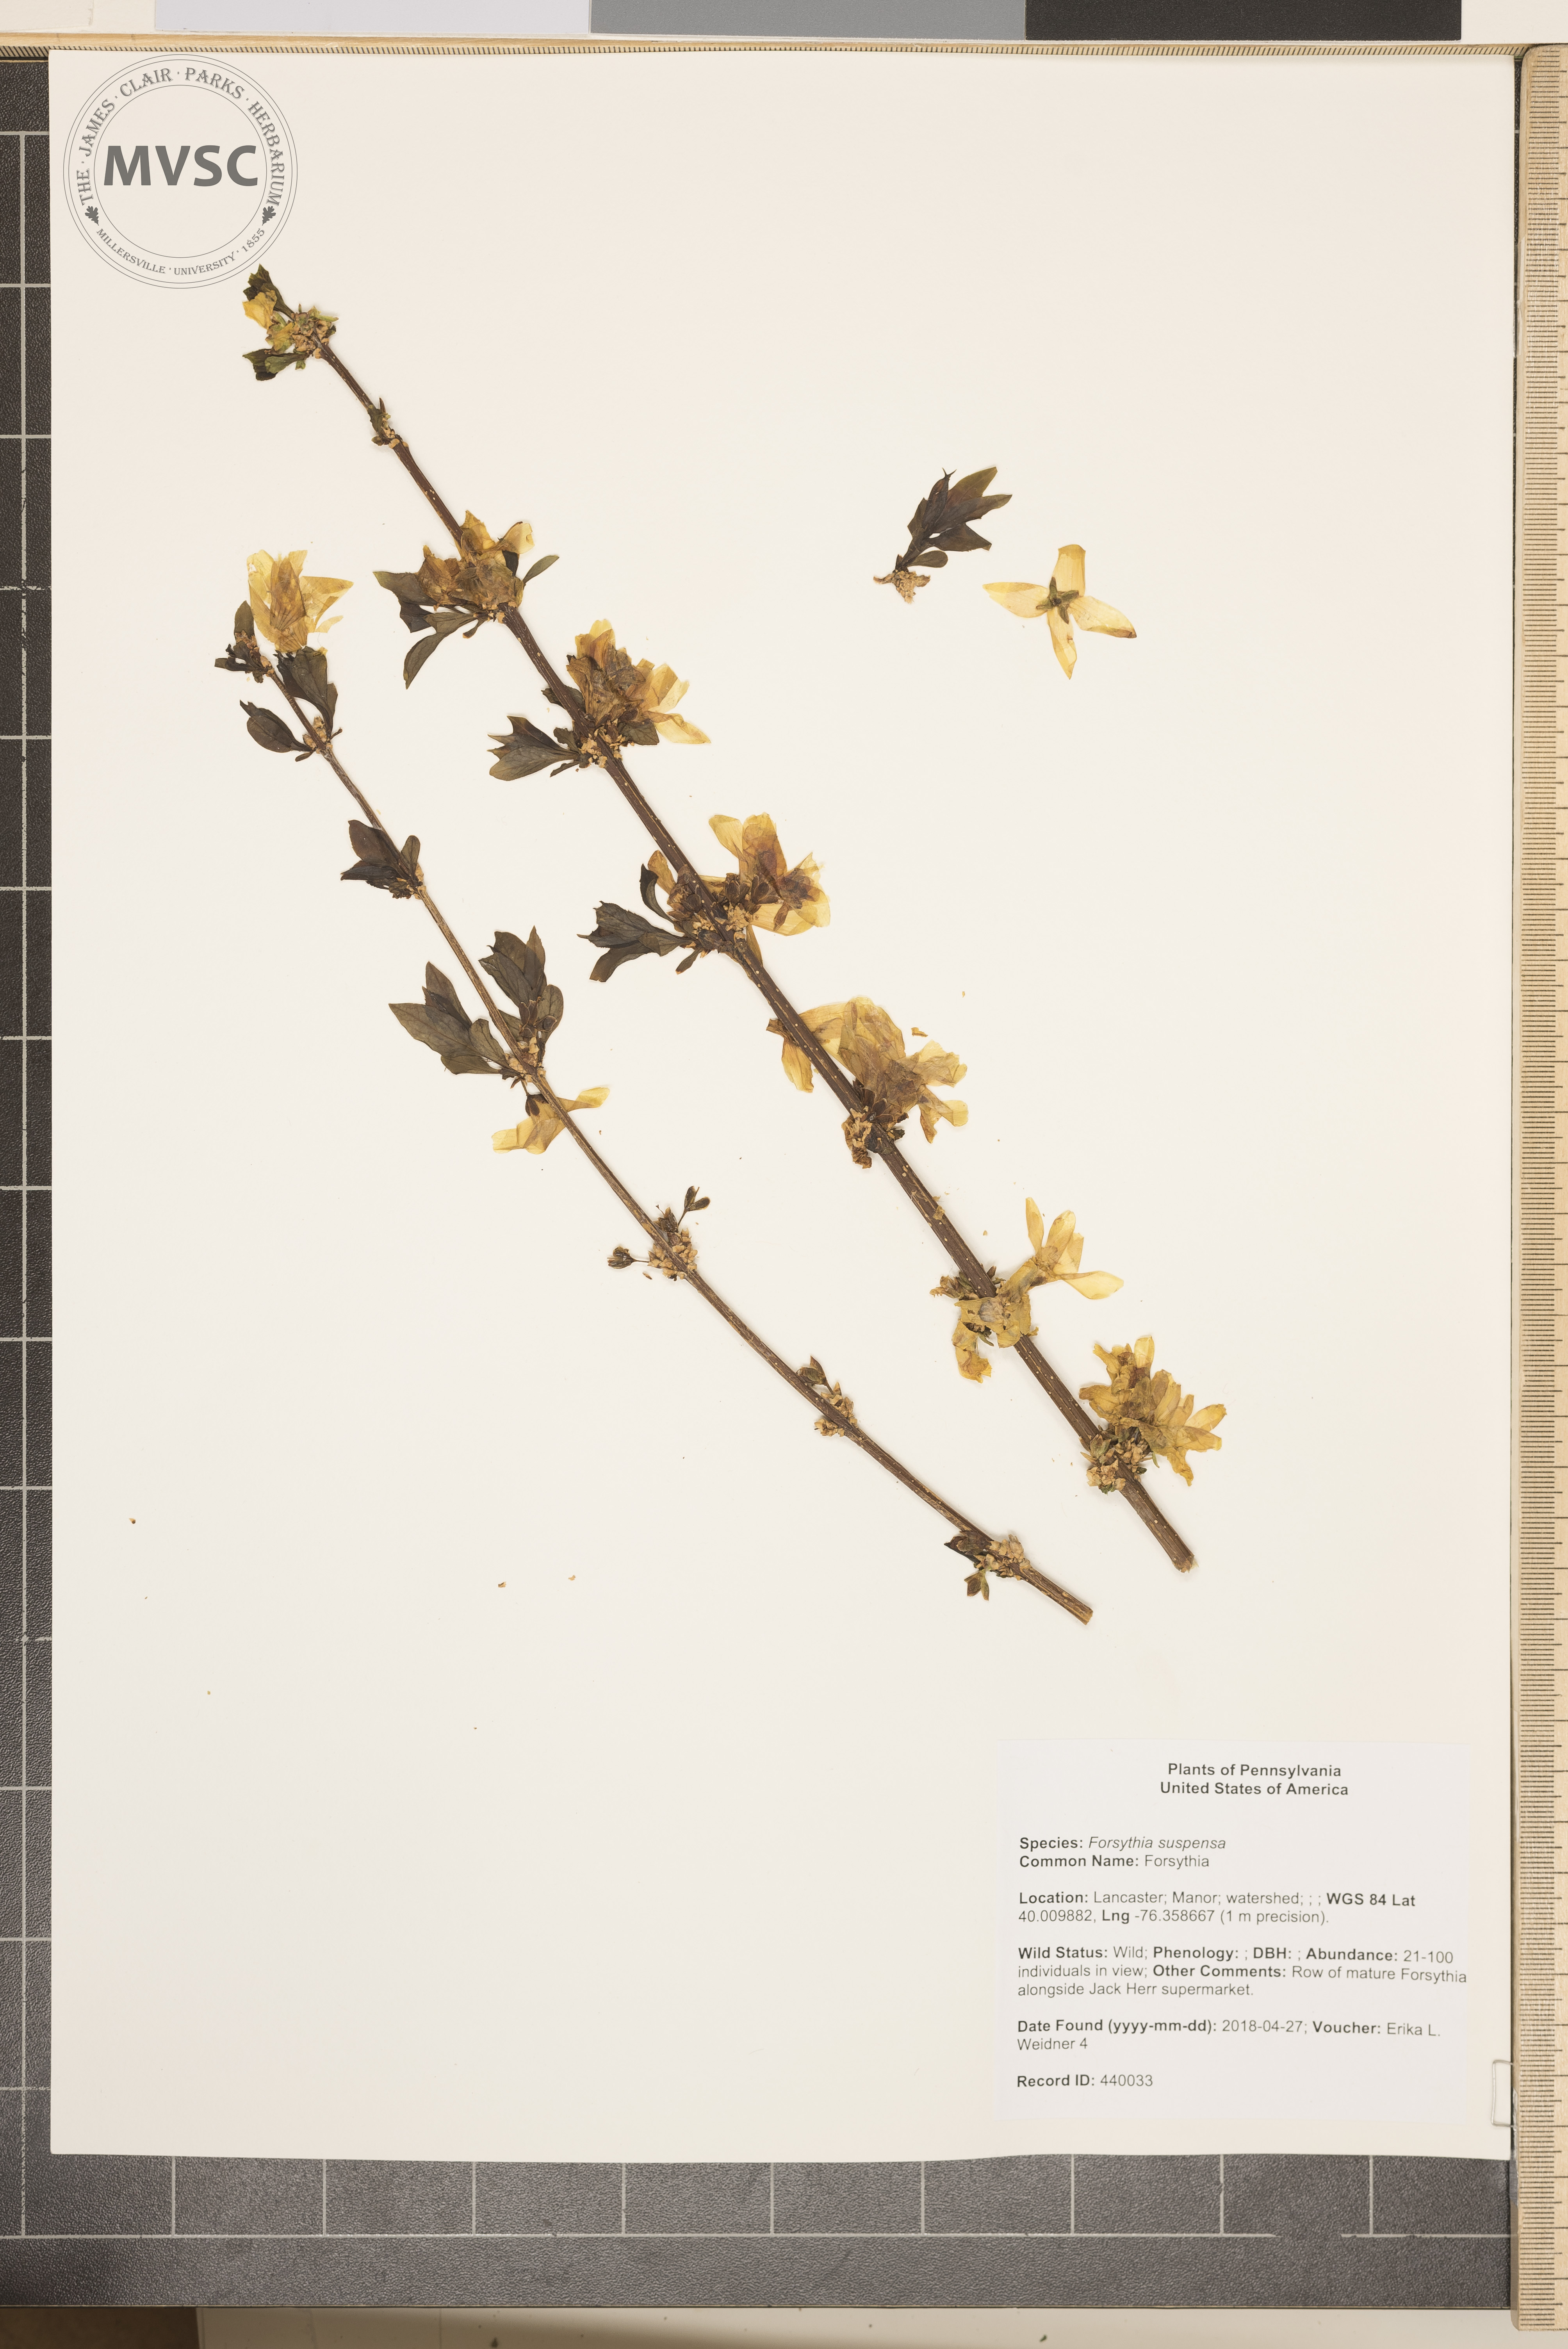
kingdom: Plantae
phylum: Tracheophyta
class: Magnoliopsida
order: Lamiales
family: Oleaceae
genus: Forsythia
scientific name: Forsythia suspensa
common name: Forsythia
